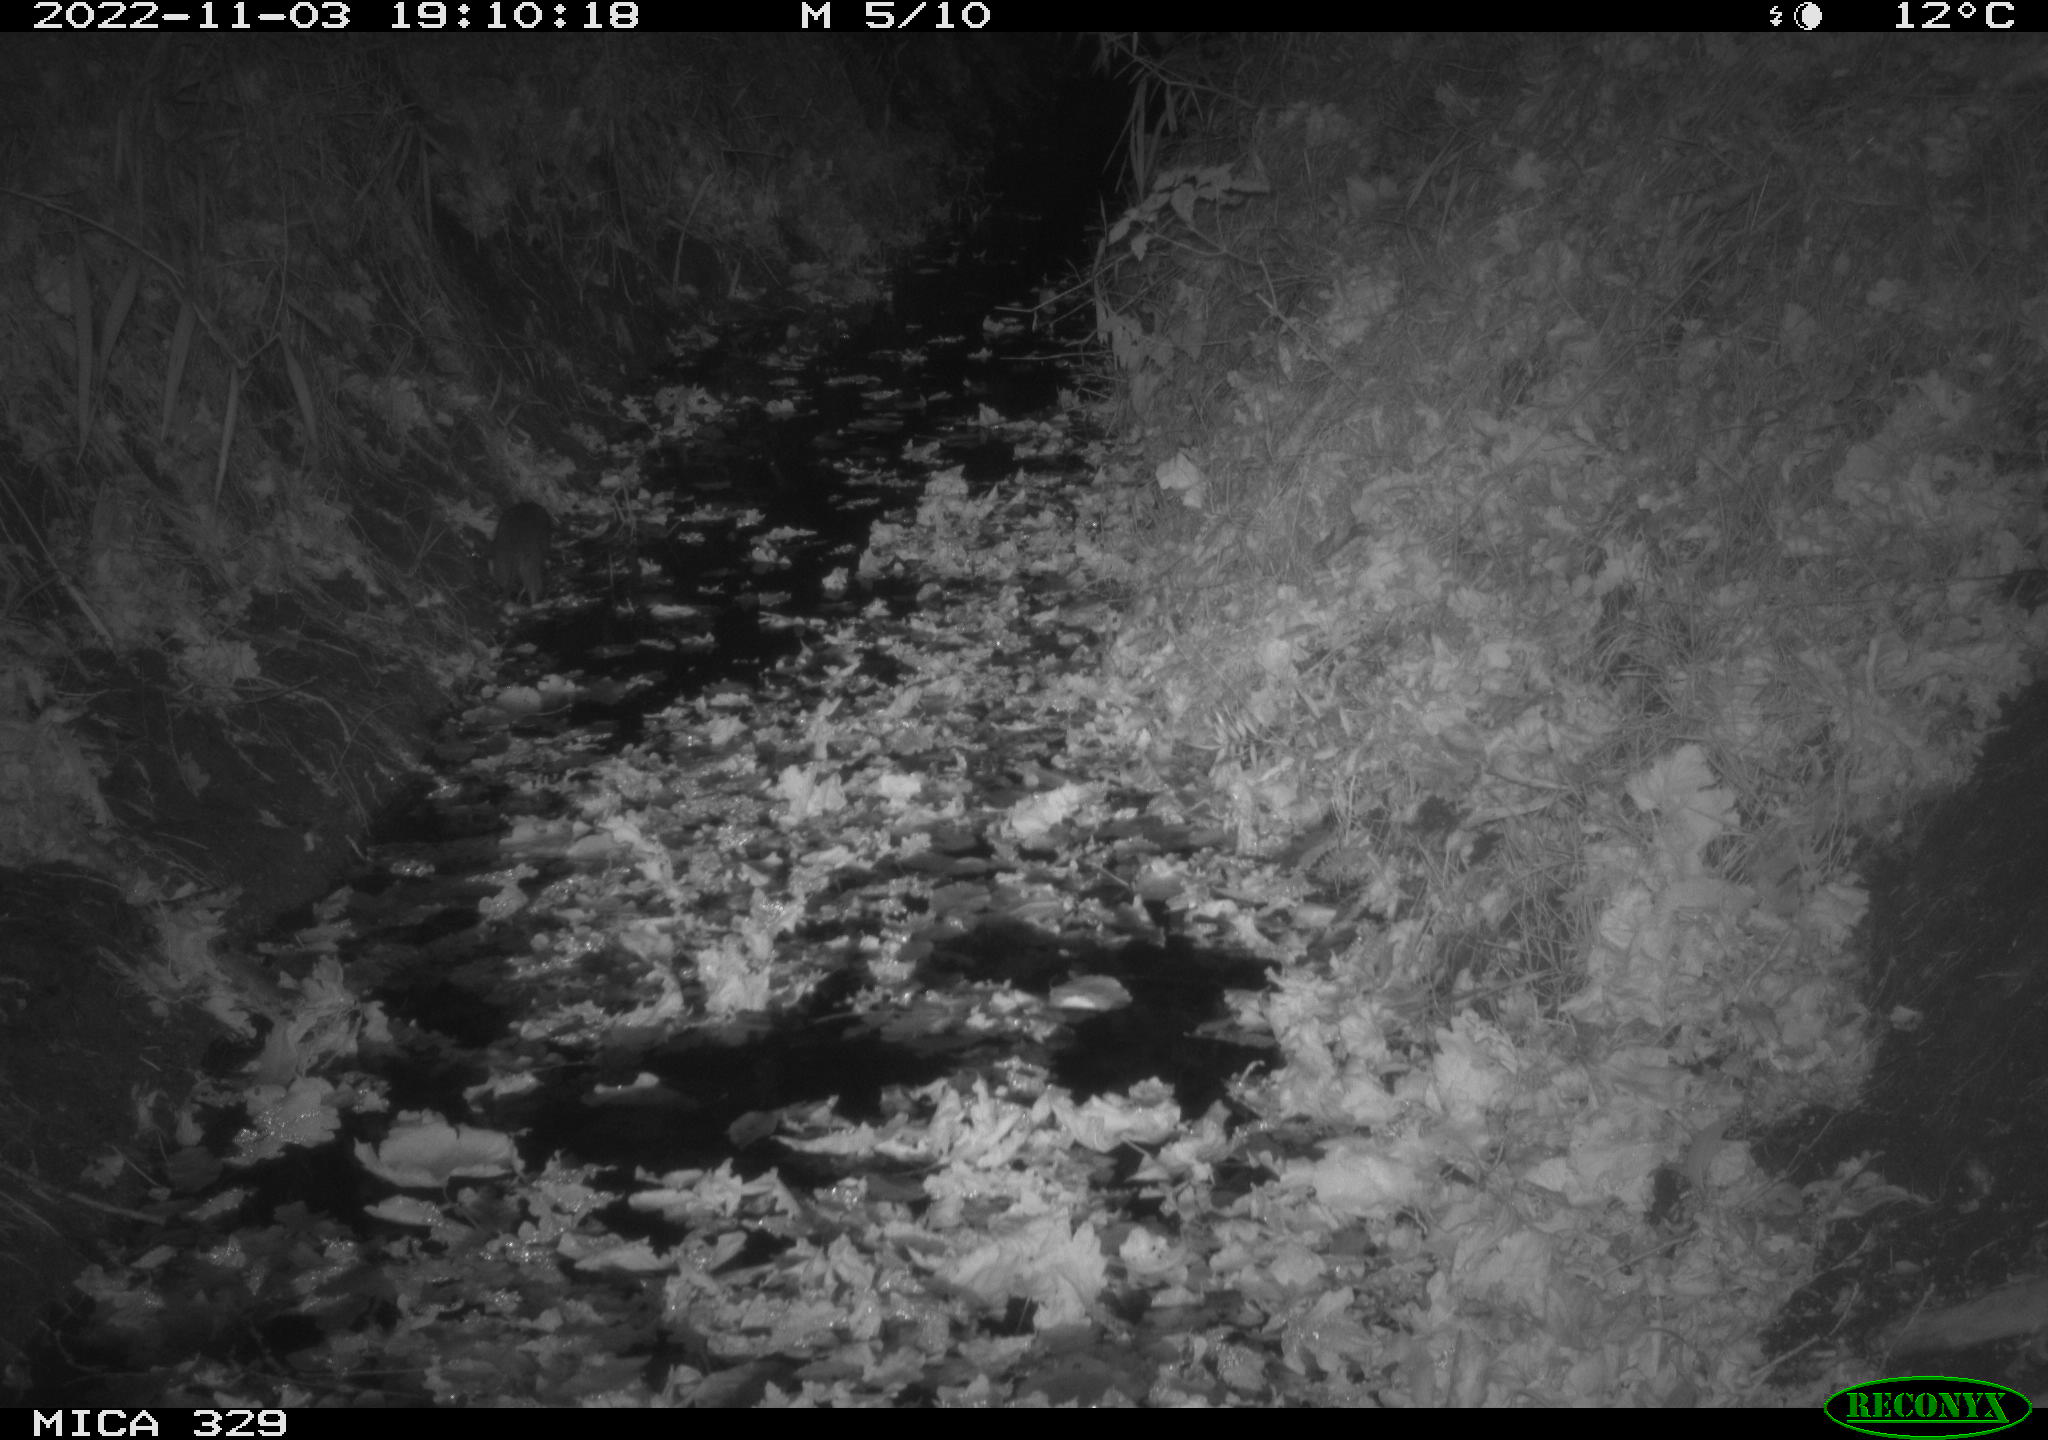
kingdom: Animalia
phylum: Chordata
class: Mammalia
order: Rodentia
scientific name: Rodentia
